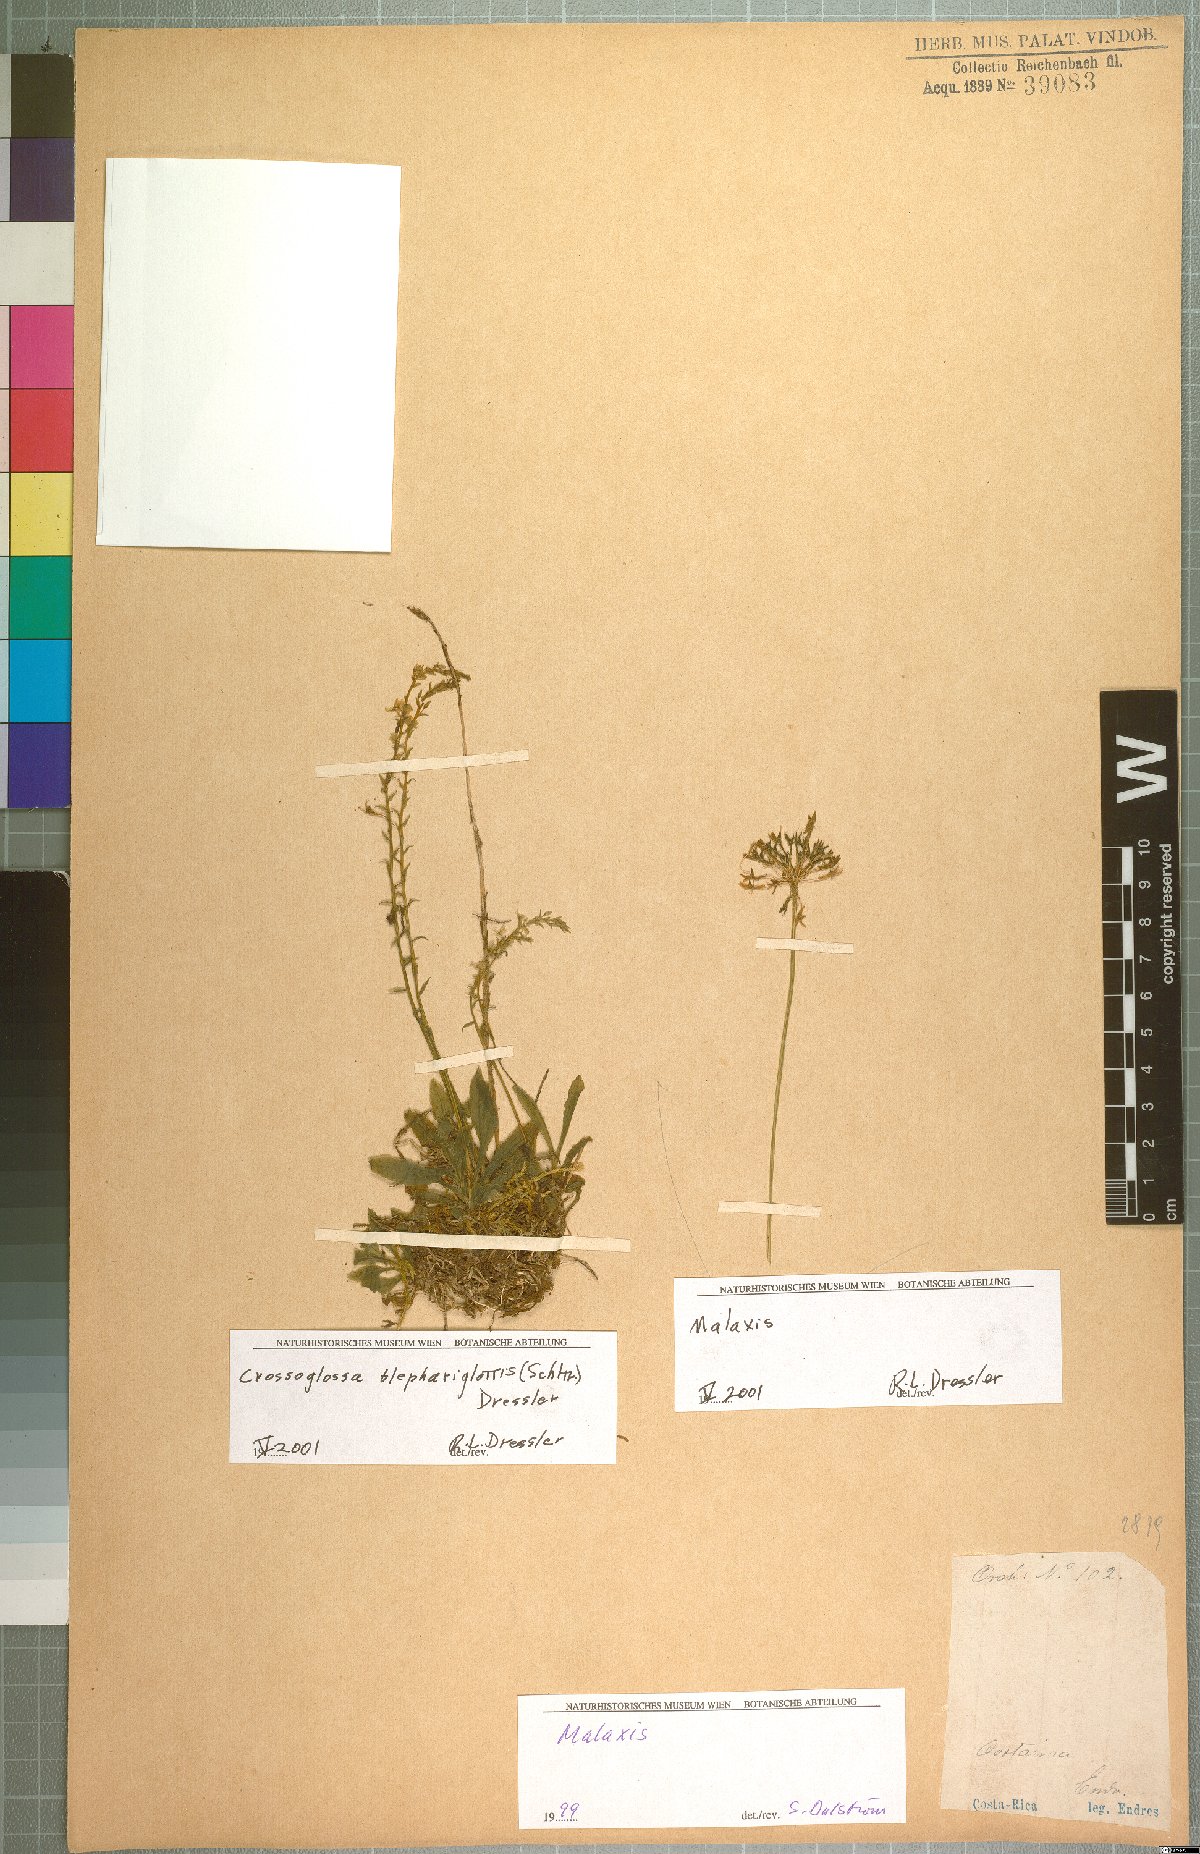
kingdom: Plantae
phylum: Tracheophyta
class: Liliopsida
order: Asparagales
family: Orchidaceae
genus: Crossoglossa
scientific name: Crossoglossa blephariglottis
